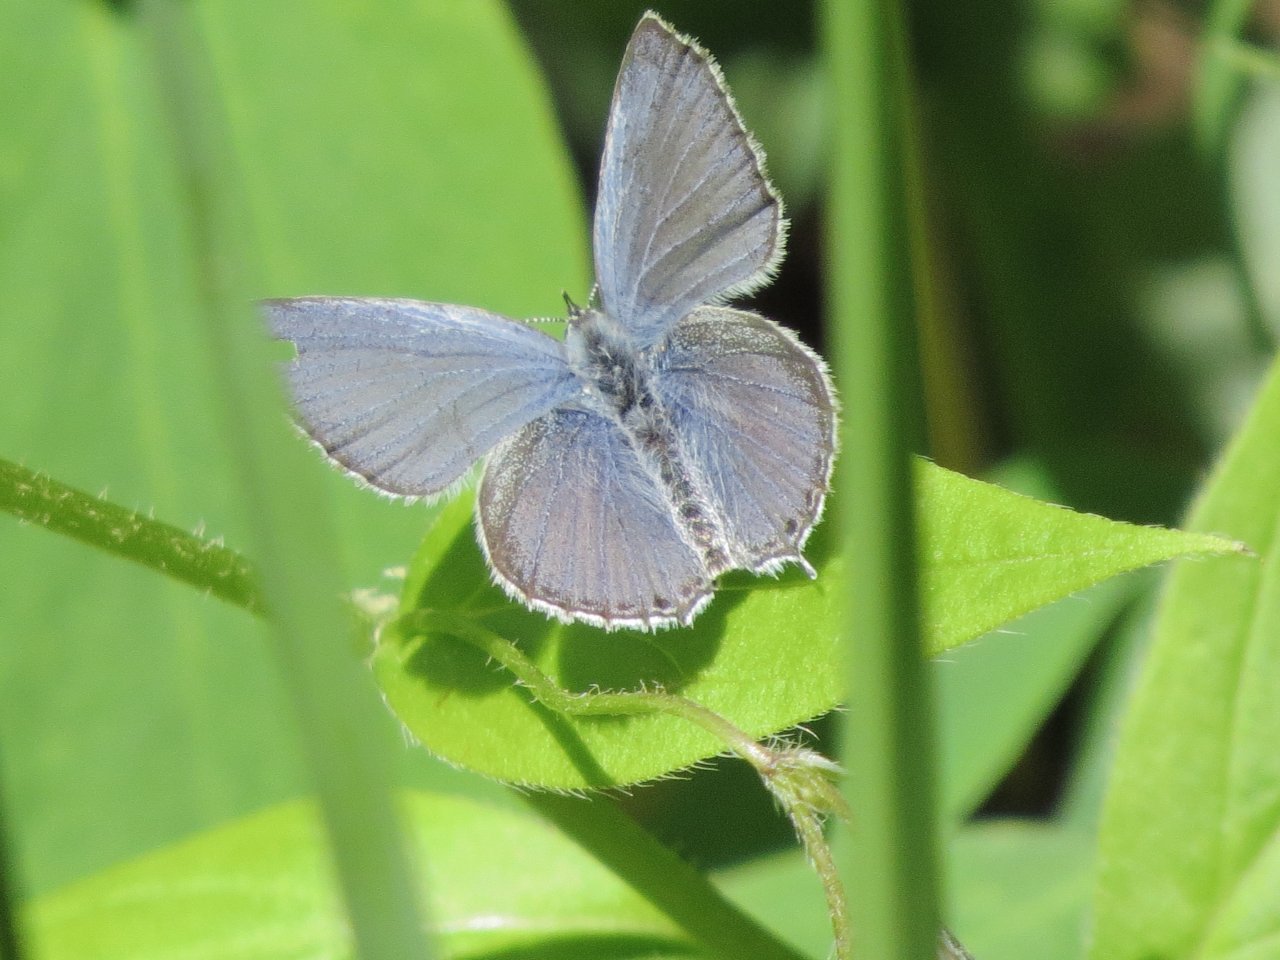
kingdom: Animalia
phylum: Arthropoda
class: Insecta
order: Lepidoptera
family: Lycaenidae
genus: Elkalyce
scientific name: Elkalyce amyntula
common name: Western Tailed-Blue
